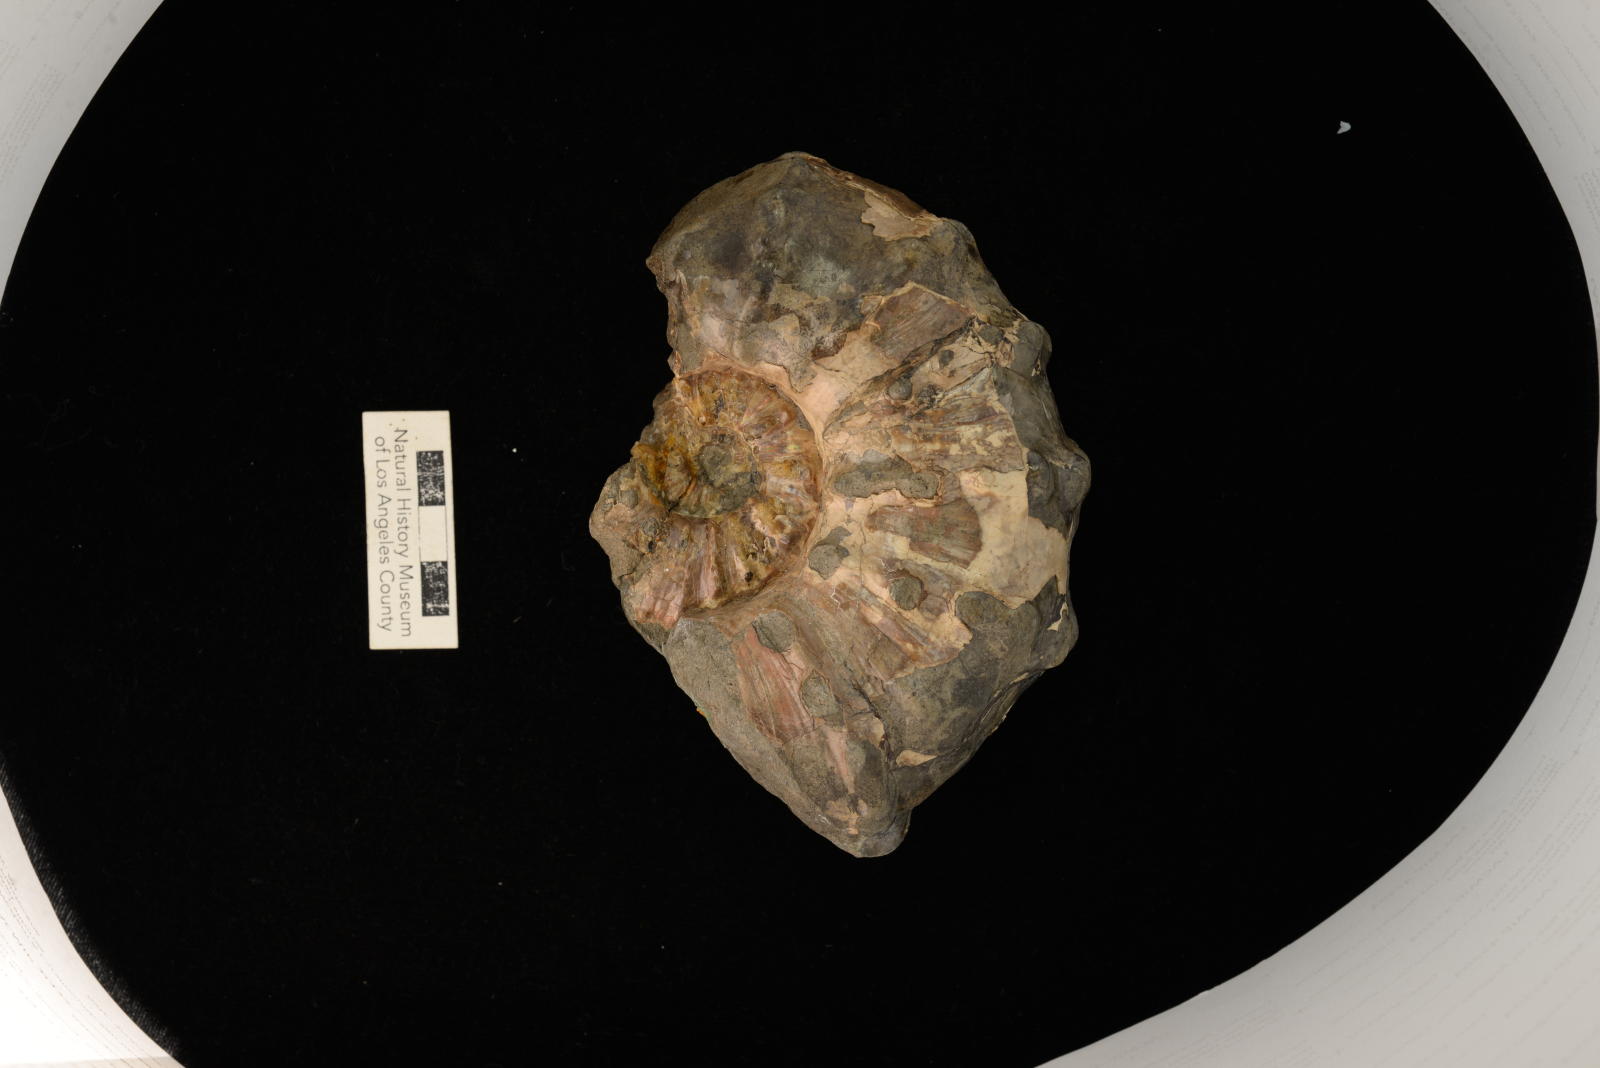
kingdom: Animalia
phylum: Mollusca
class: Cephalopoda
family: Acanthoceratidae
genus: Romaniceras
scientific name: Romaniceras
